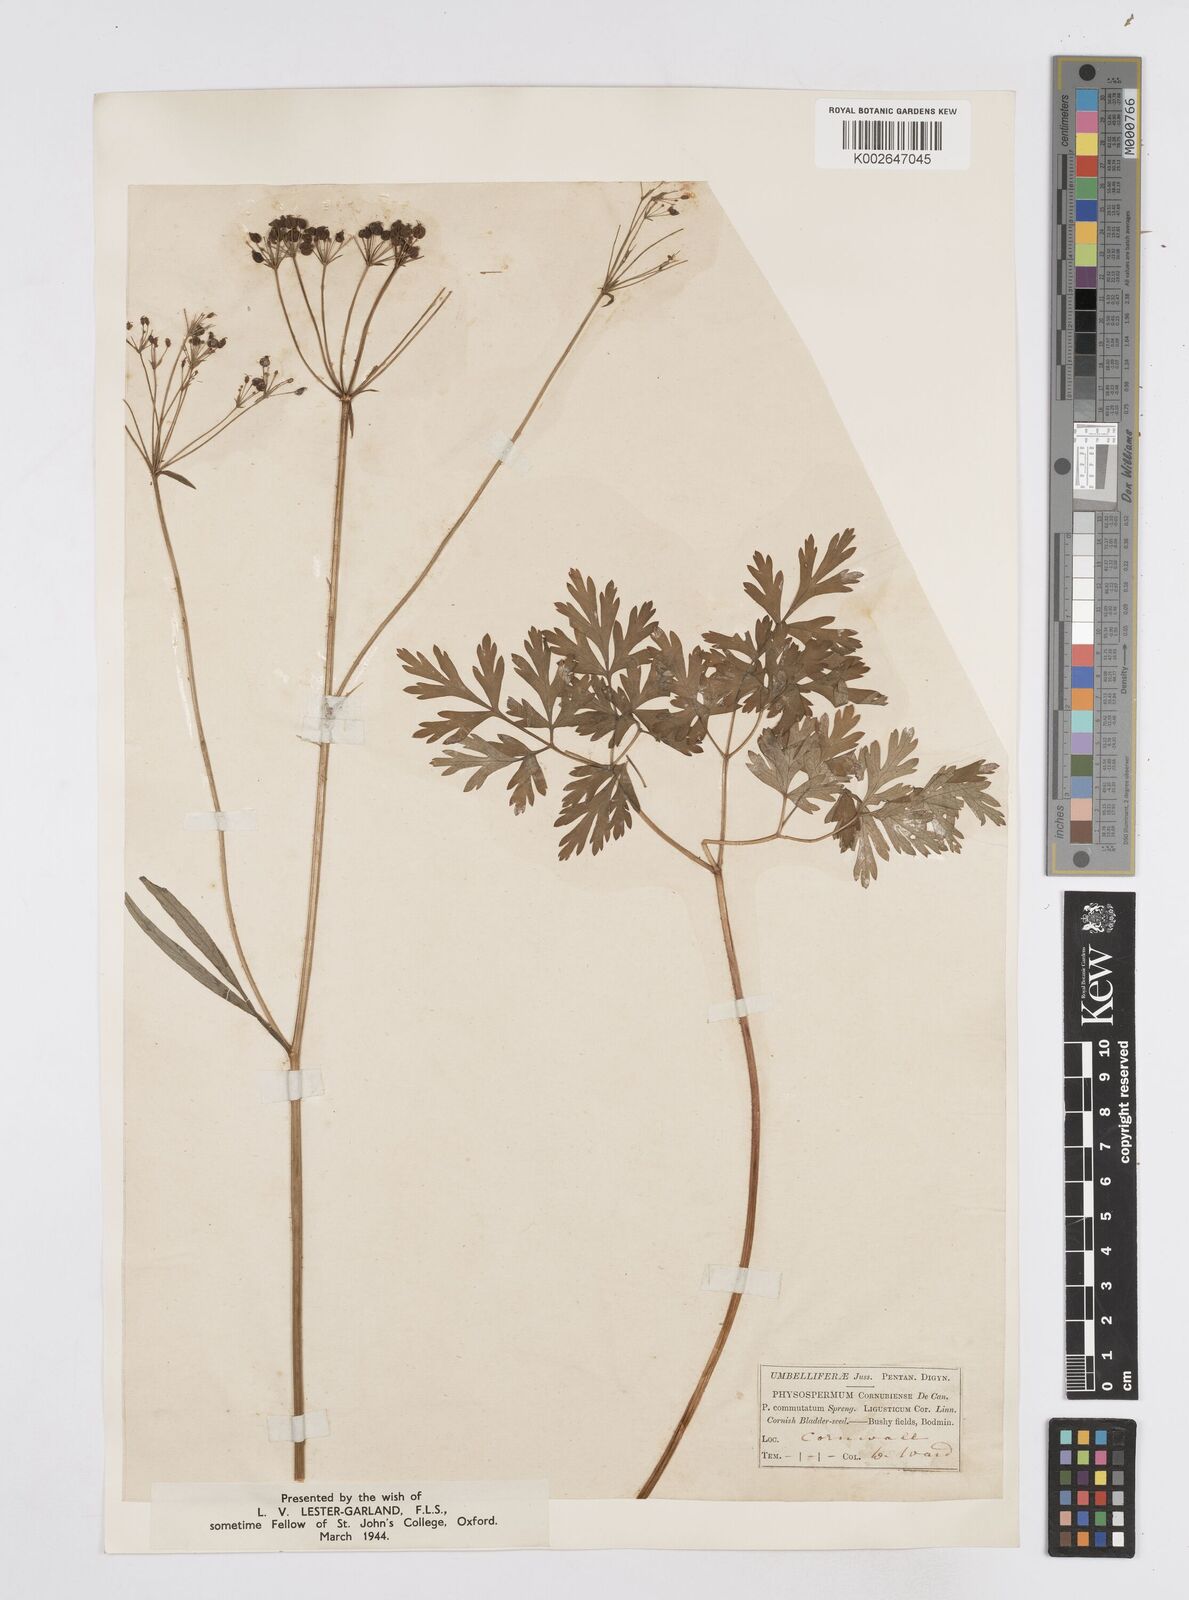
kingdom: Plantae
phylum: Tracheophyta
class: Magnoliopsida
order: Apiales
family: Apiaceae
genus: Physospermum
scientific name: Physospermum cornubiense
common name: Bladderseed
